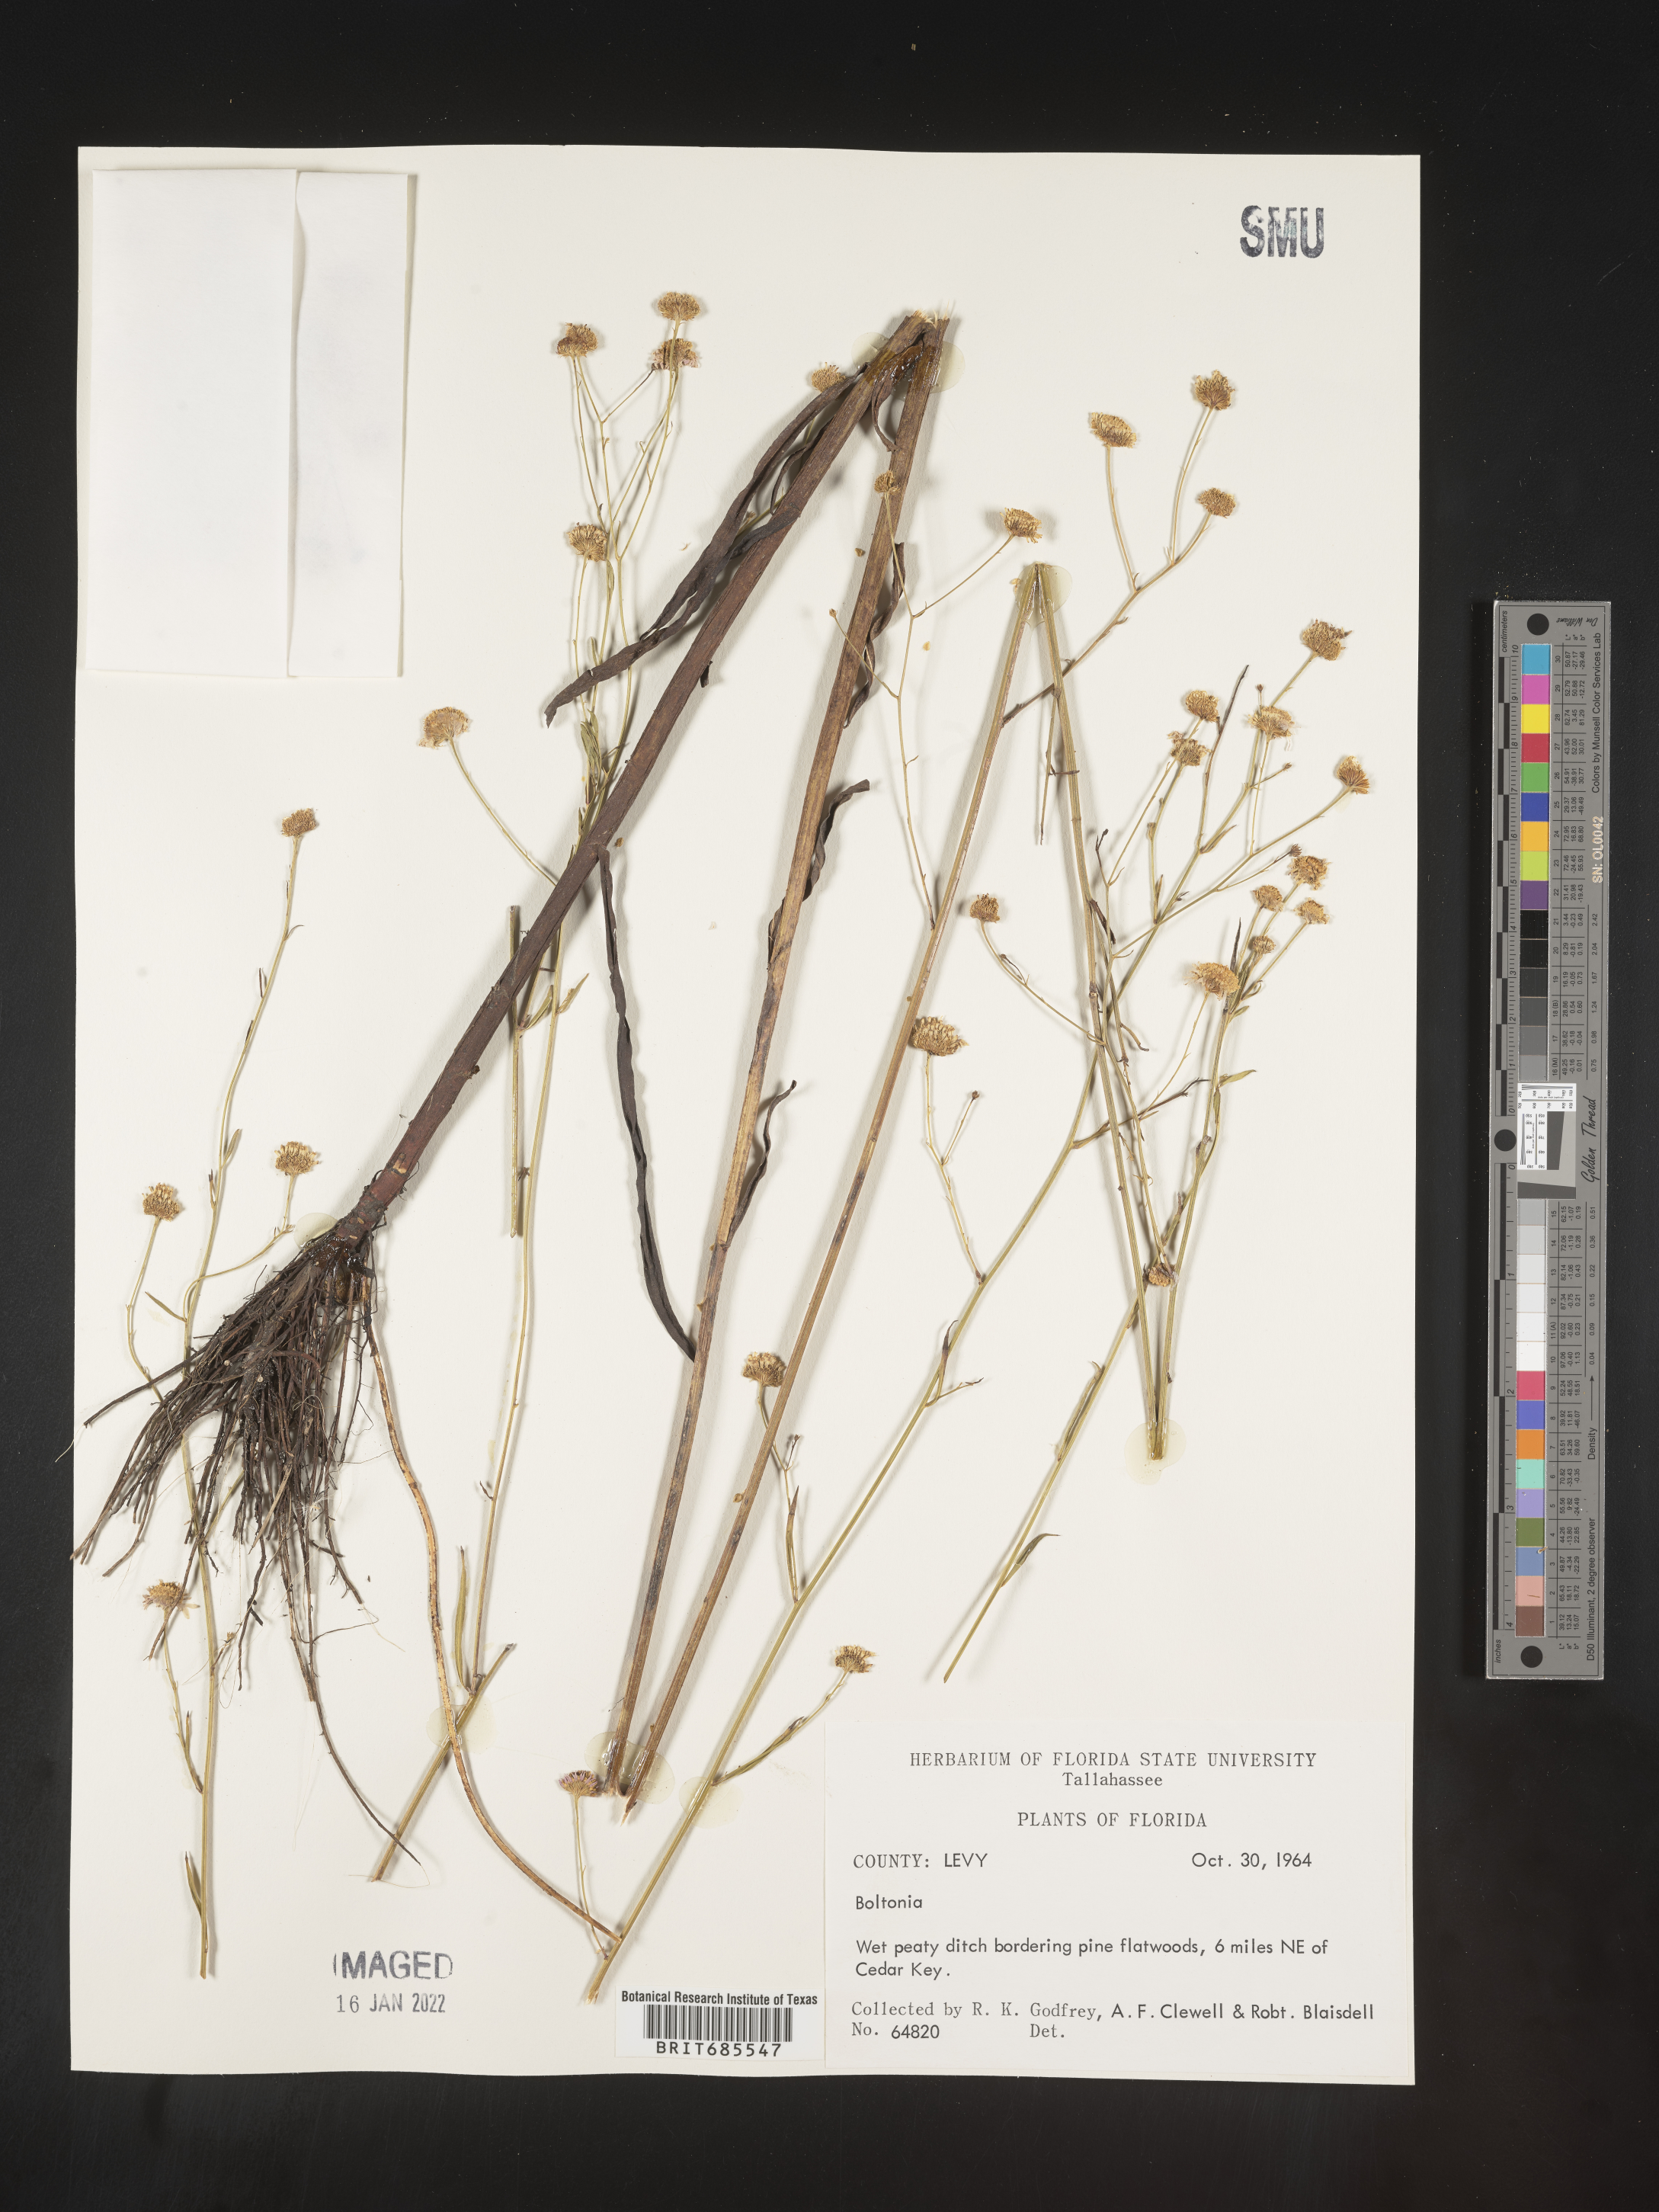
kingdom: Plantae
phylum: Tracheophyta
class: Magnoliopsida
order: Asterales
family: Asteraceae
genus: Boltonia
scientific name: Boltonia
